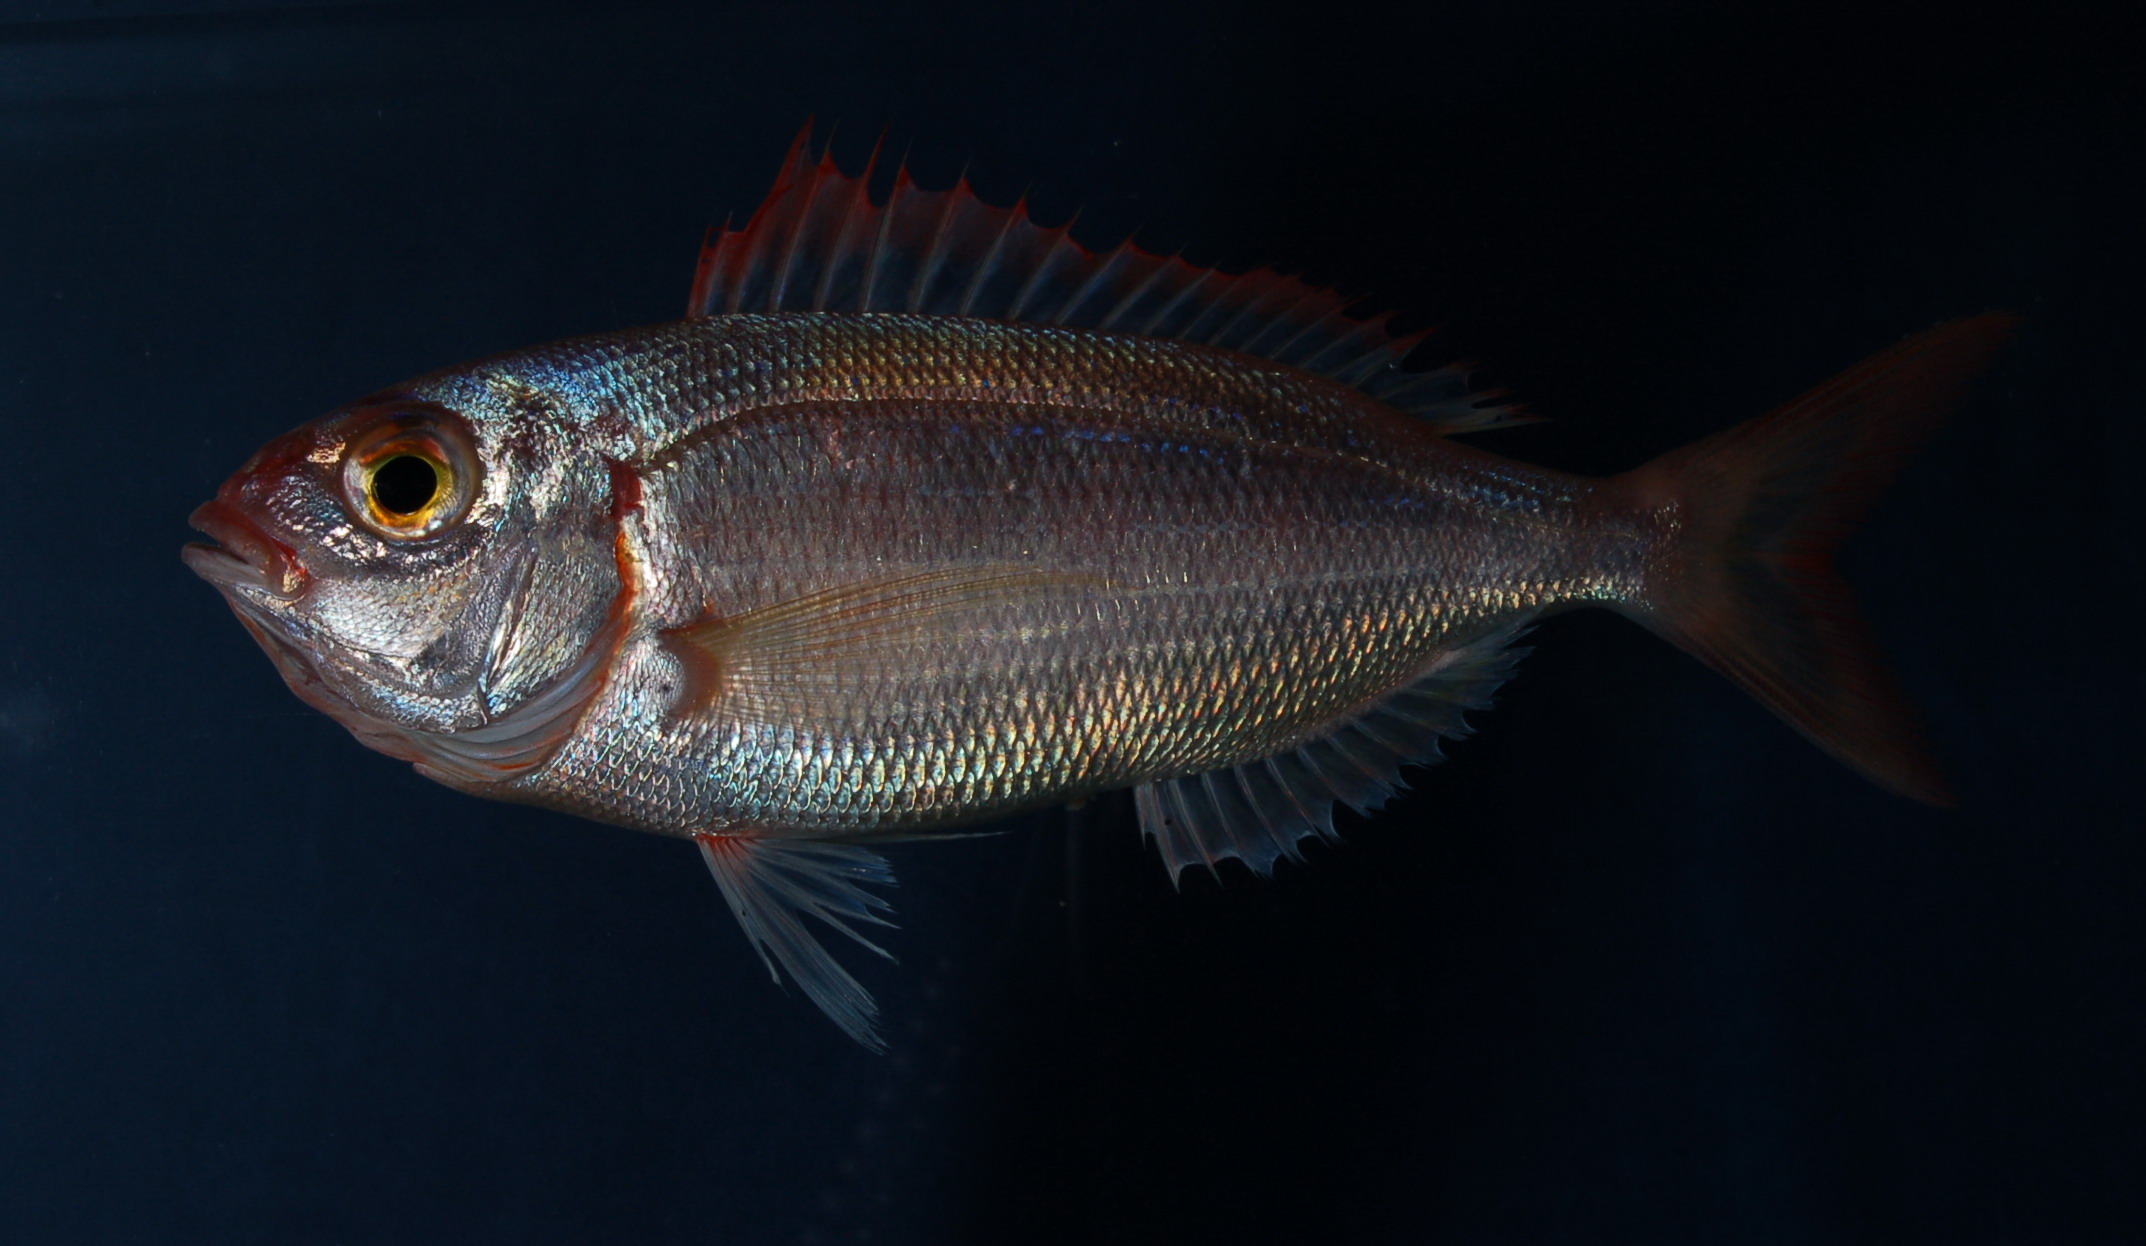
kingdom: Animalia
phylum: Chordata
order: Perciformes
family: Sparidae
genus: Pagellus
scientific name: Pagellus natalensis
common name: Natal pandora
